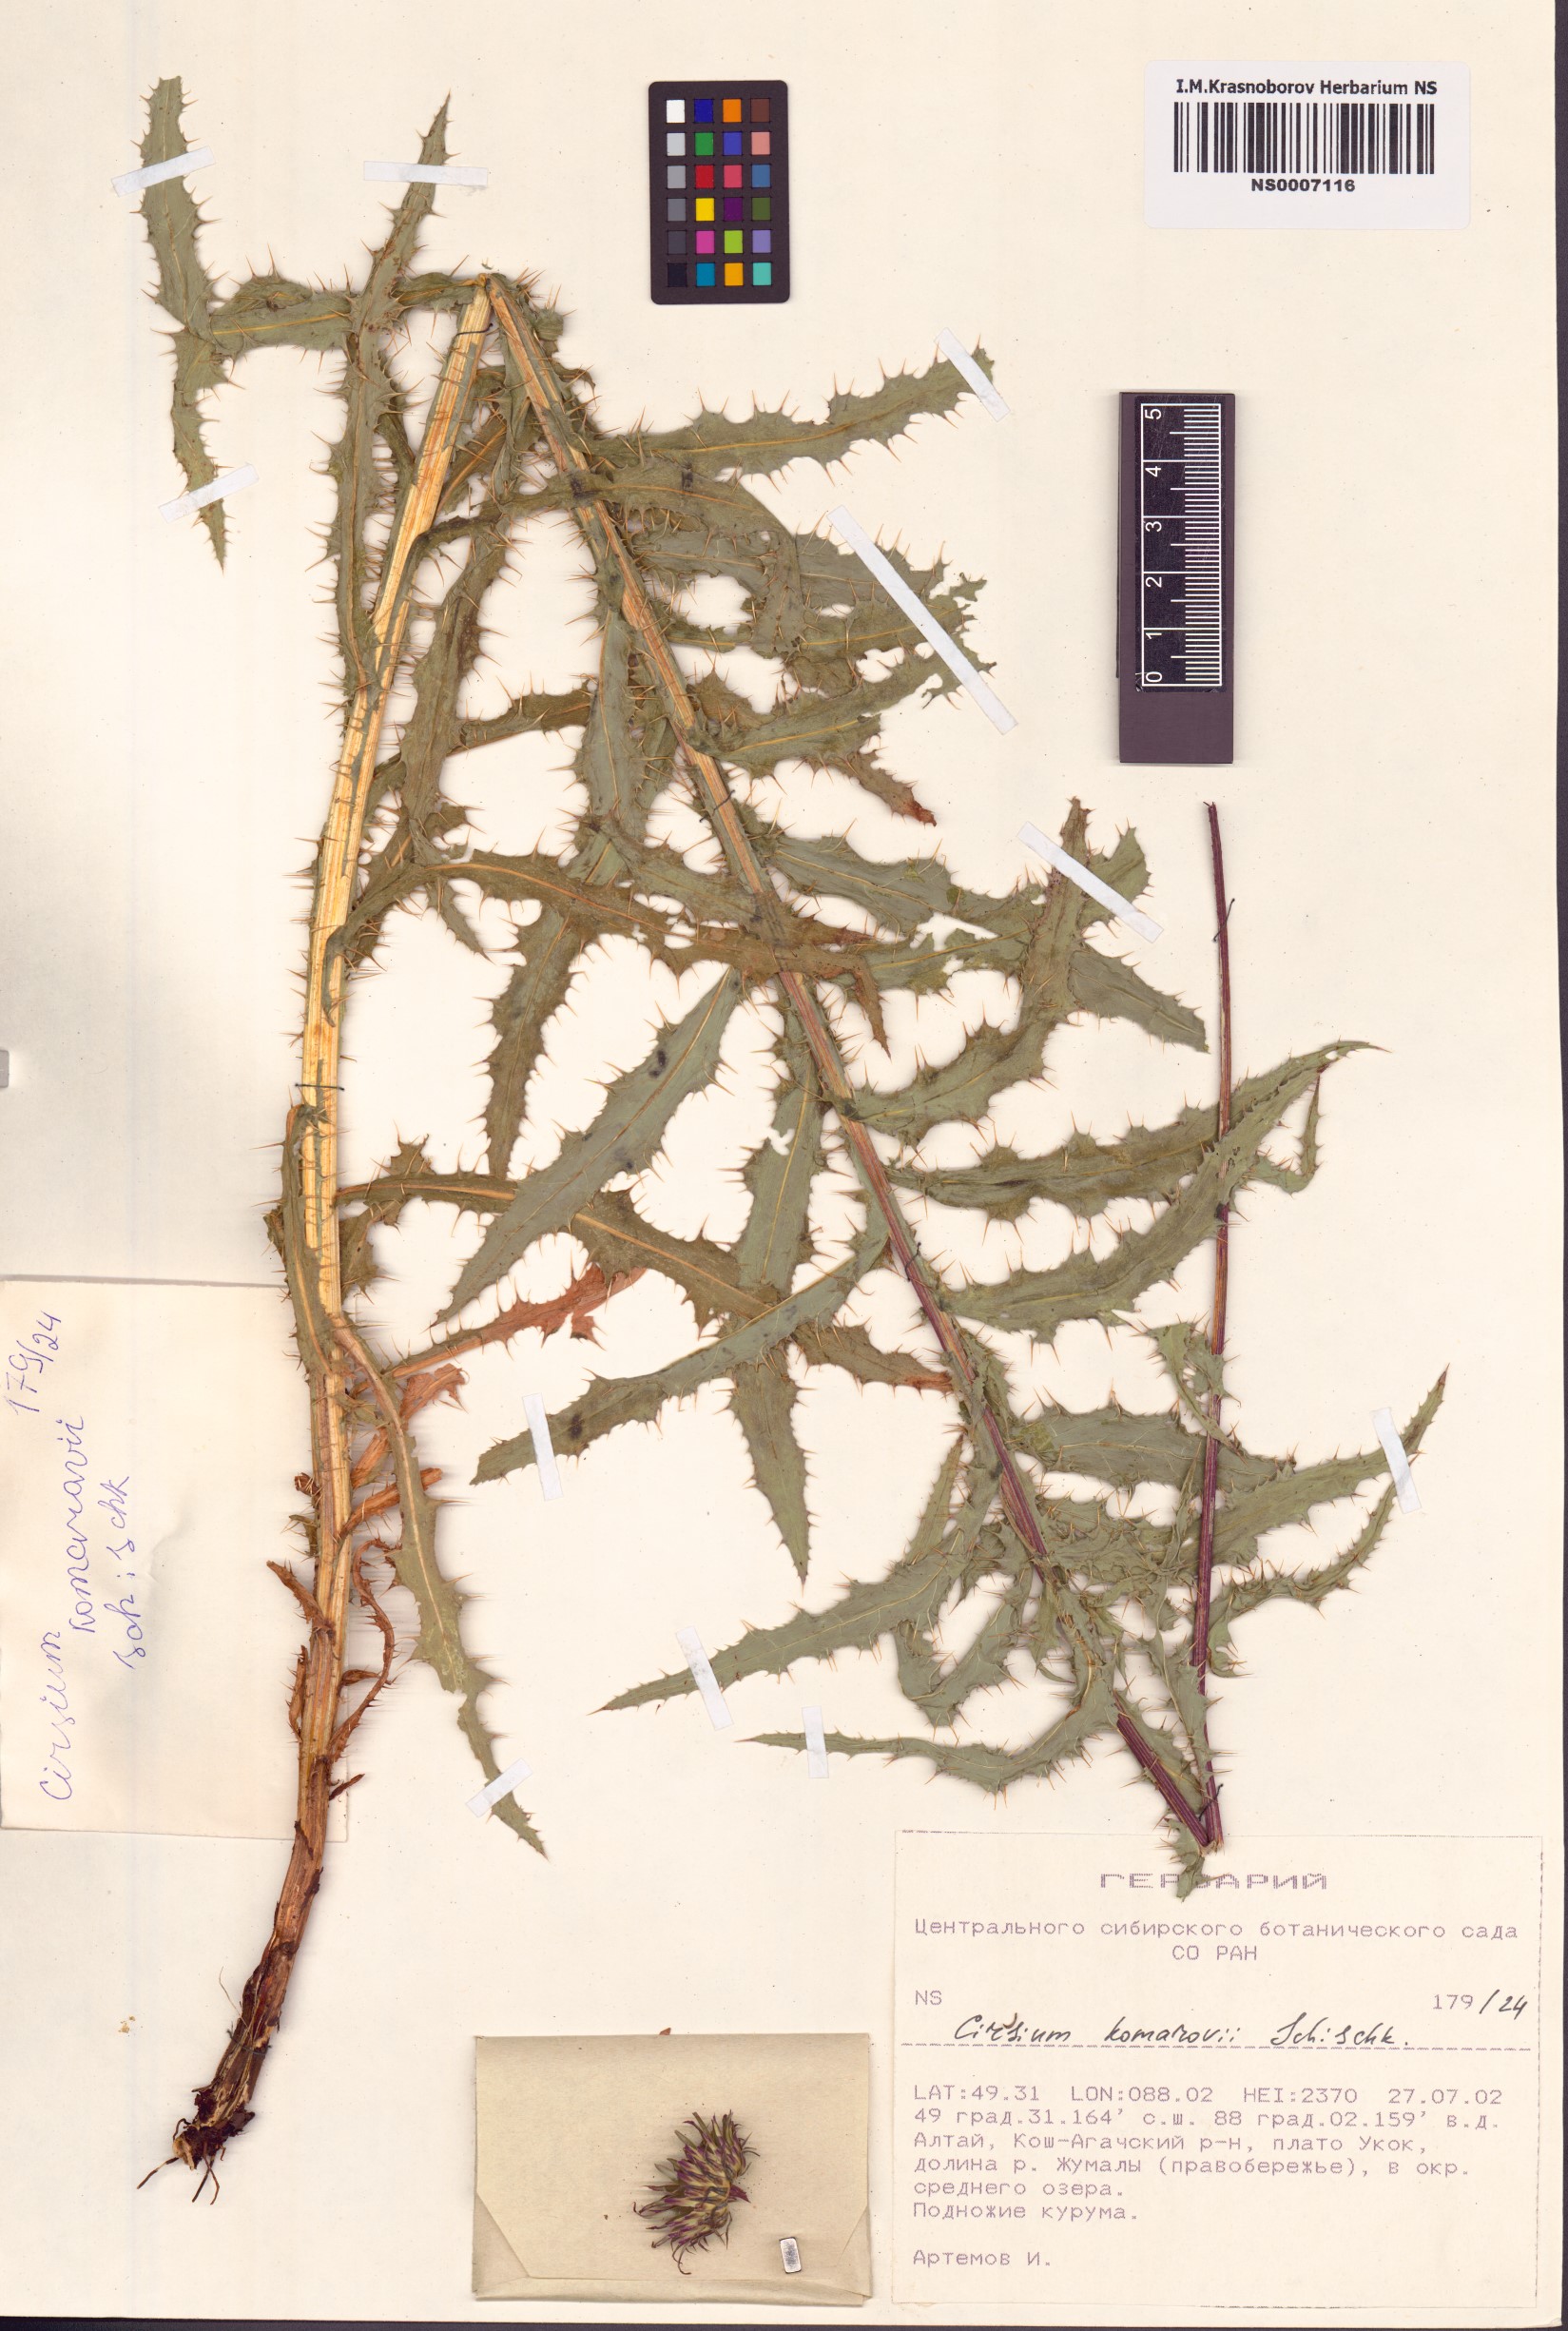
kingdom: Plantae
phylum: Tracheophyta
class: Magnoliopsida
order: Asterales
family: Asteraceae
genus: Cirsium
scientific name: Cirsium komarovii
